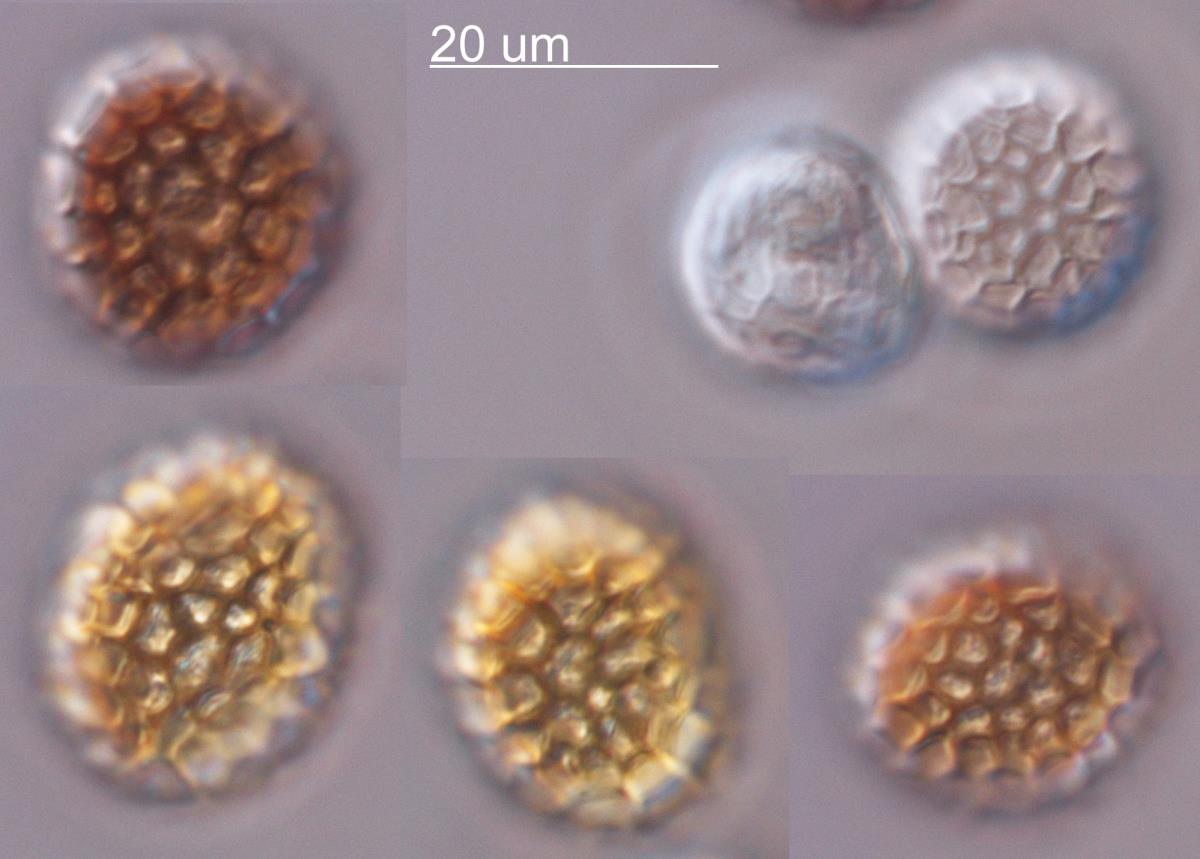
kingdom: Fungi
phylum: Basidiomycota
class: Exobasidiomycetes
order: Tilletiales
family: Tilletiaceae
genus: Tilletia
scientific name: Tilletia anthoxanthi
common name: Sweet vernal smut
